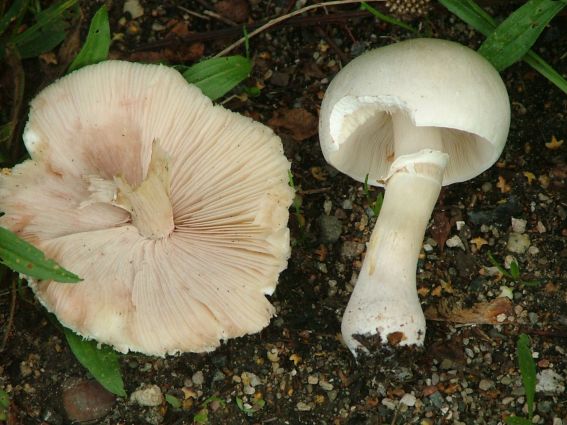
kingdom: Fungi
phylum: Basidiomycota
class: Agaricomycetes
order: Agaricales
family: Agaricaceae
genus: Leucoagaricus
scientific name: Leucoagaricus leucothites
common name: rosabladet silkehat
